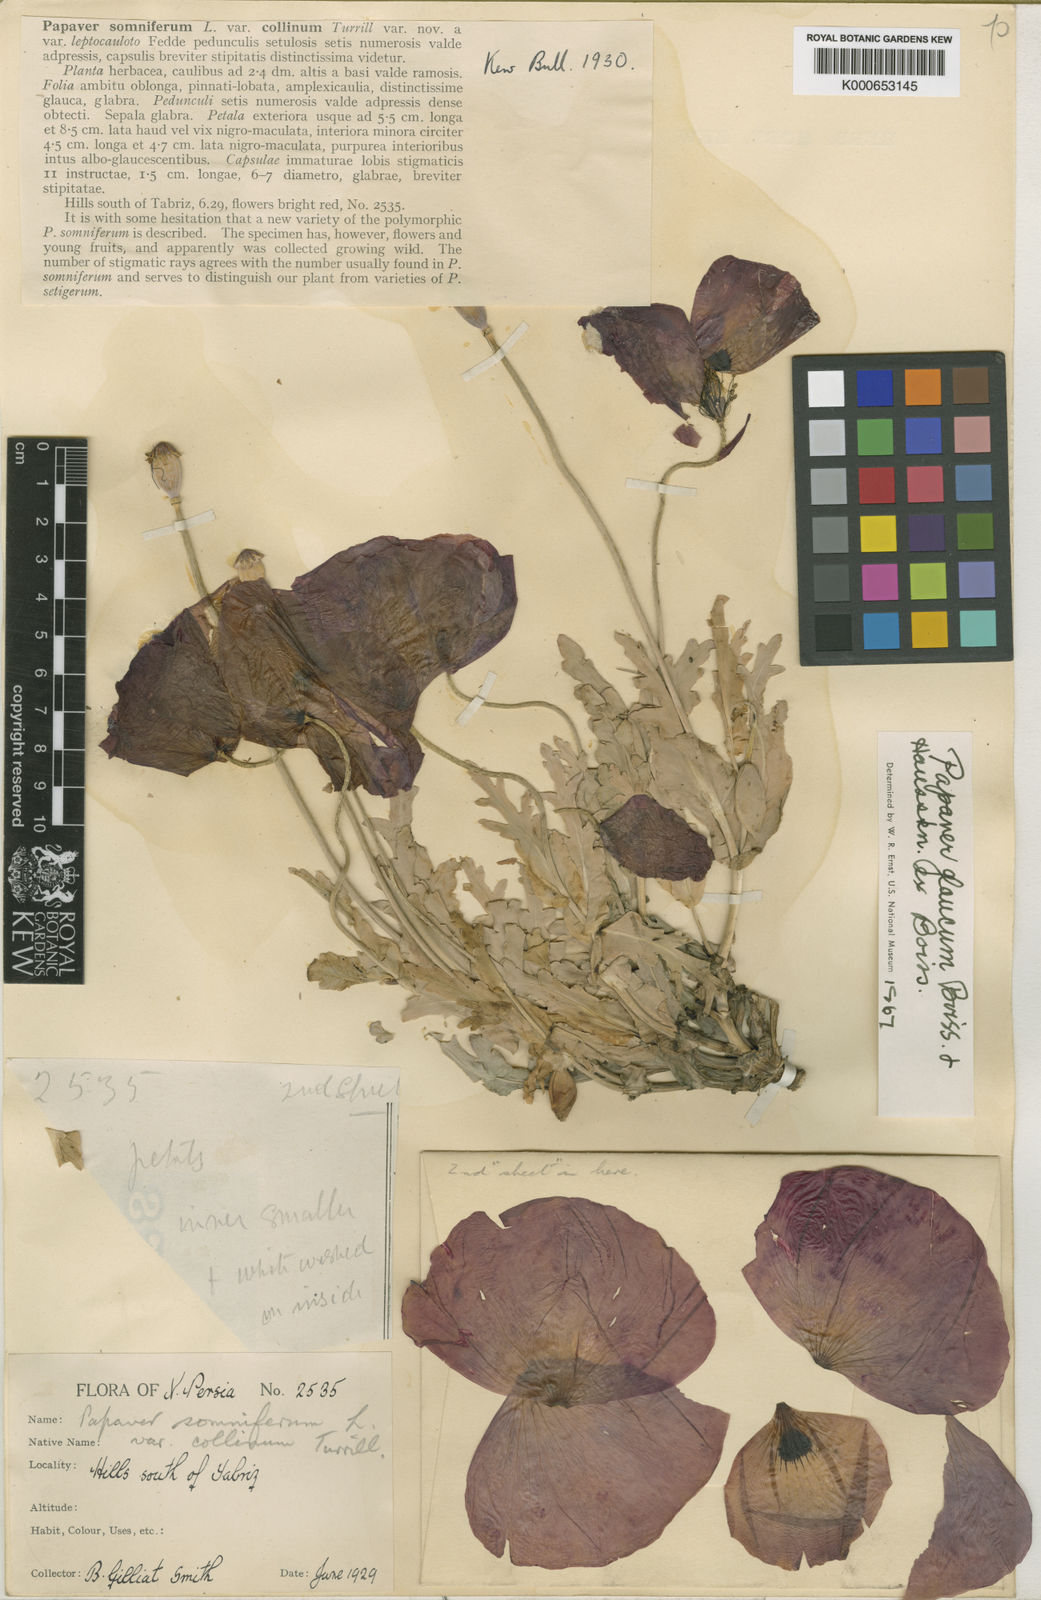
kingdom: Plantae
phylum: Tracheophyta
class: Magnoliopsida
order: Ranunculales
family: Papaveraceae
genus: Papaver
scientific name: Papaver somniferum
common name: Opium poppy
